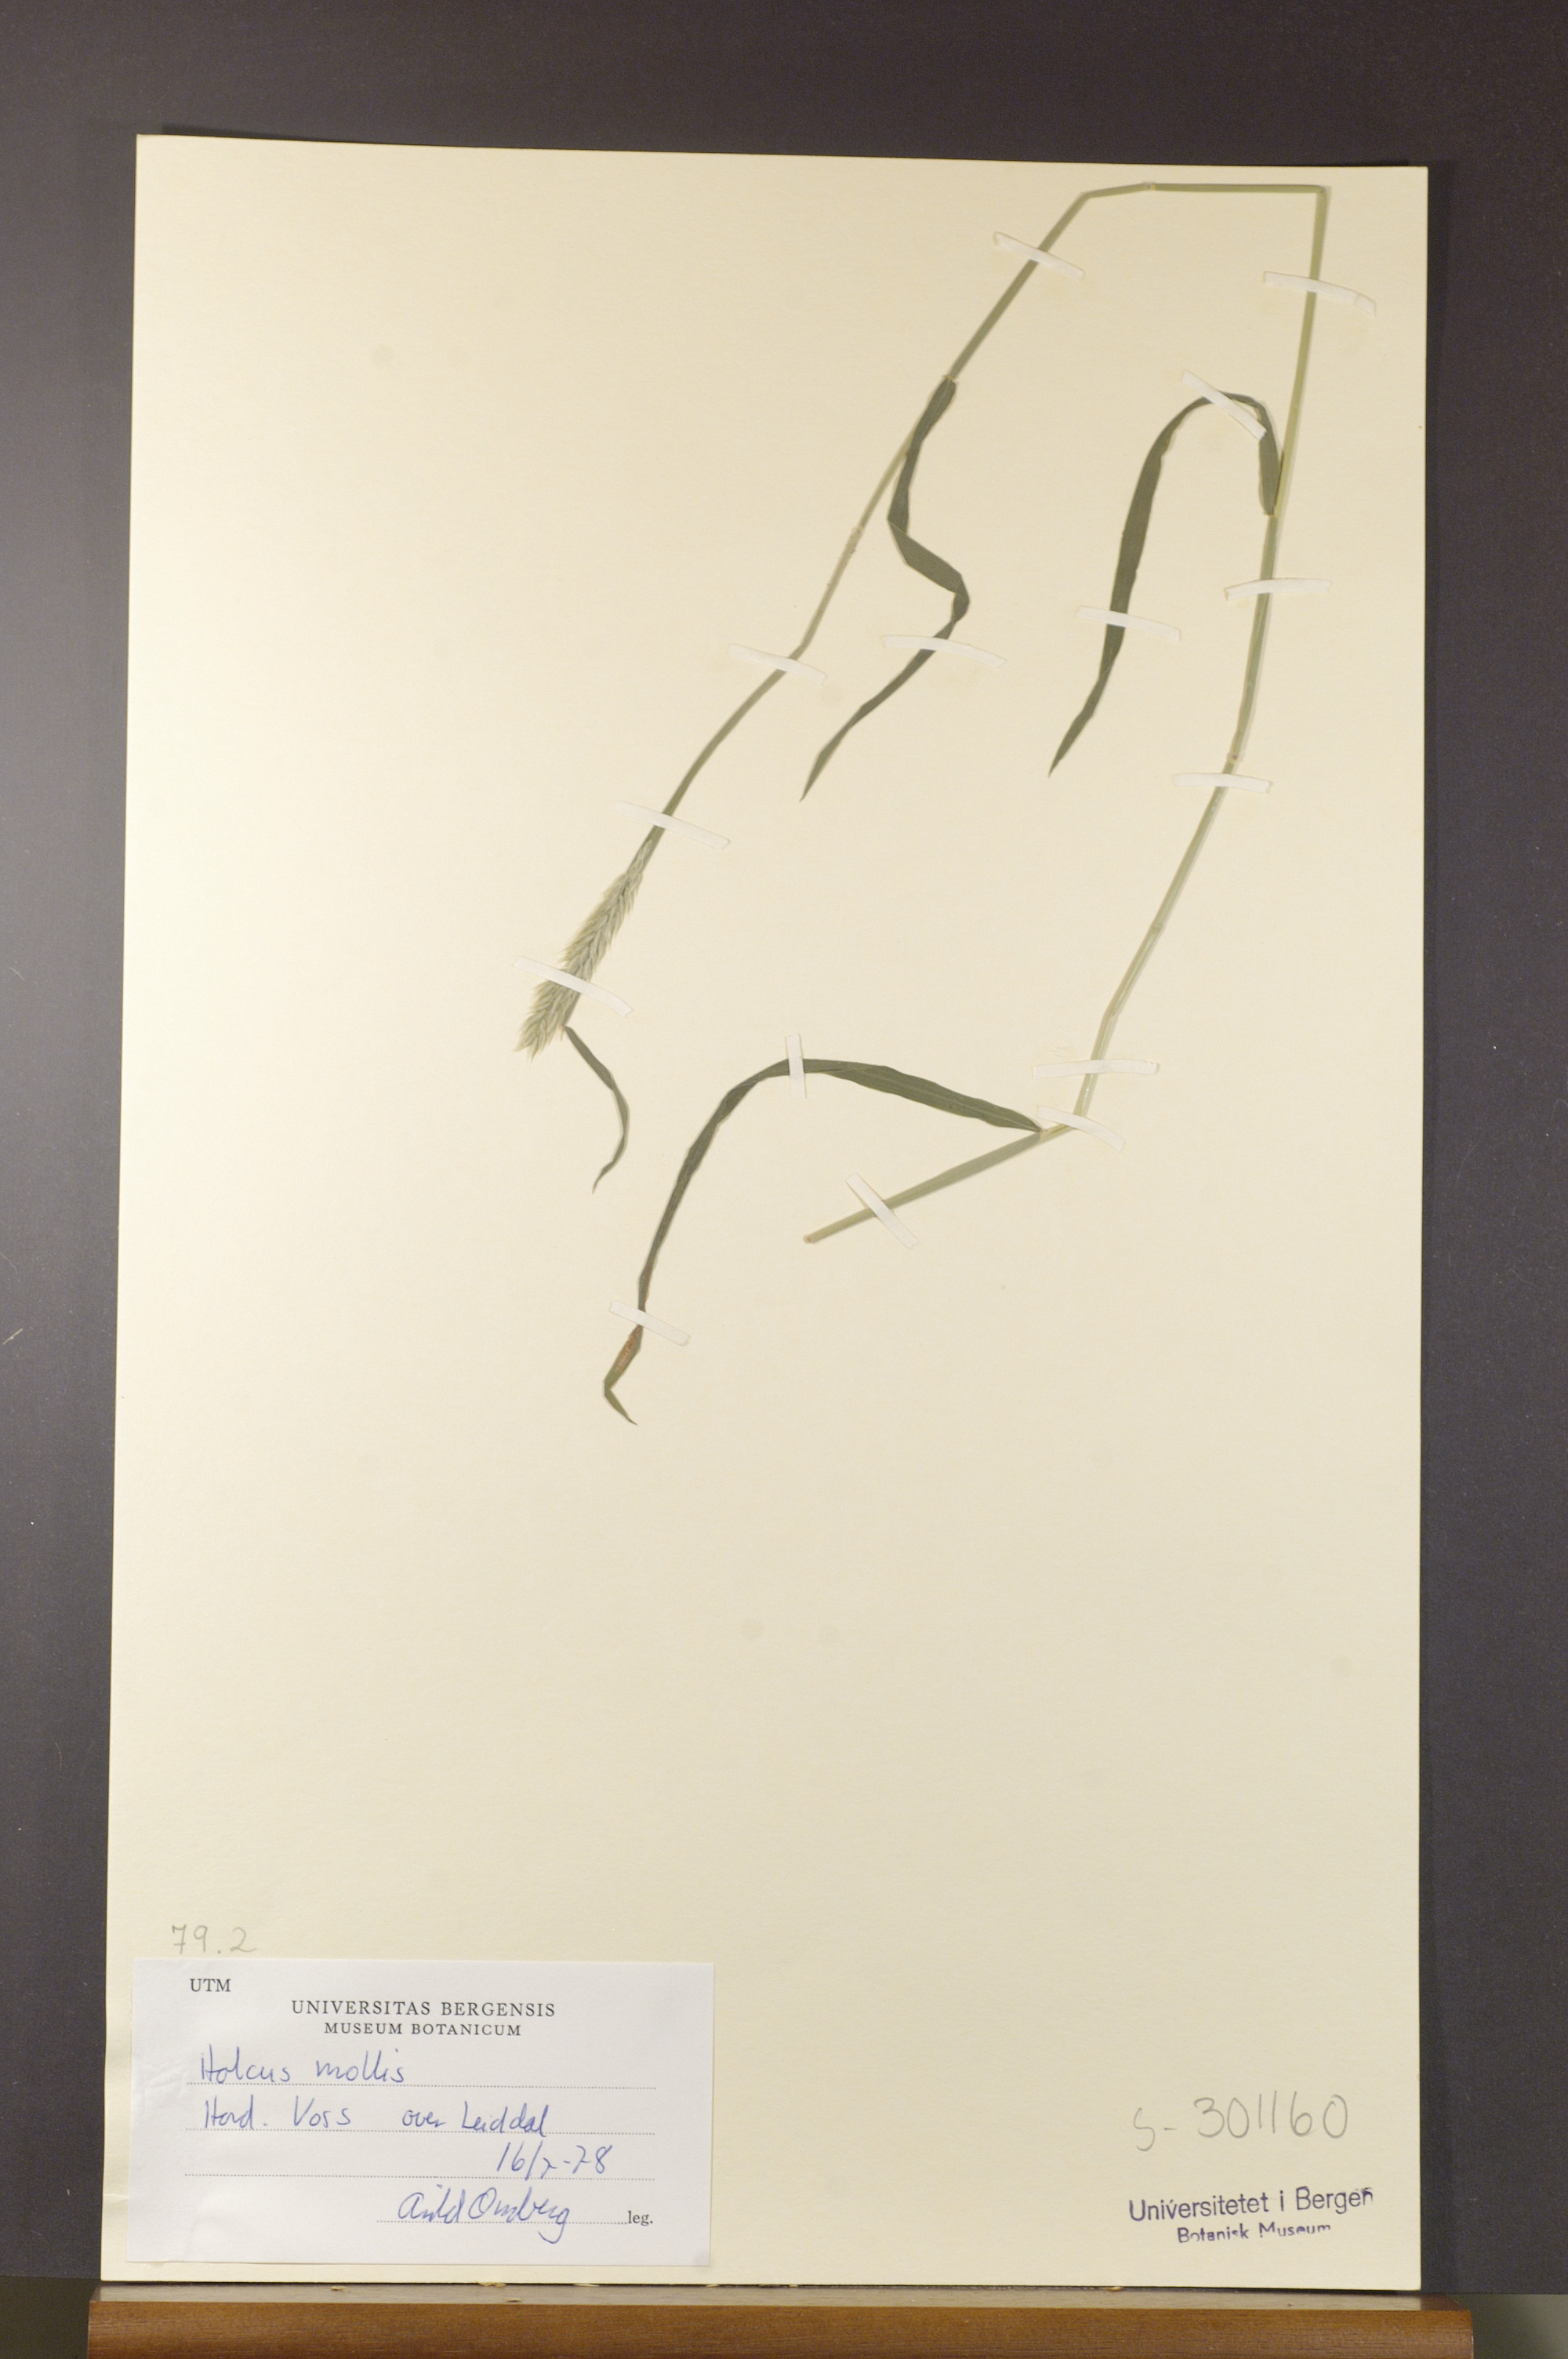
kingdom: Plantae
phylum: Tracheophyta
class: Liliopsida
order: Poales
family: Poaceae
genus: Holcus
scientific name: Holcus mollis
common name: Creeping velvetgrass
